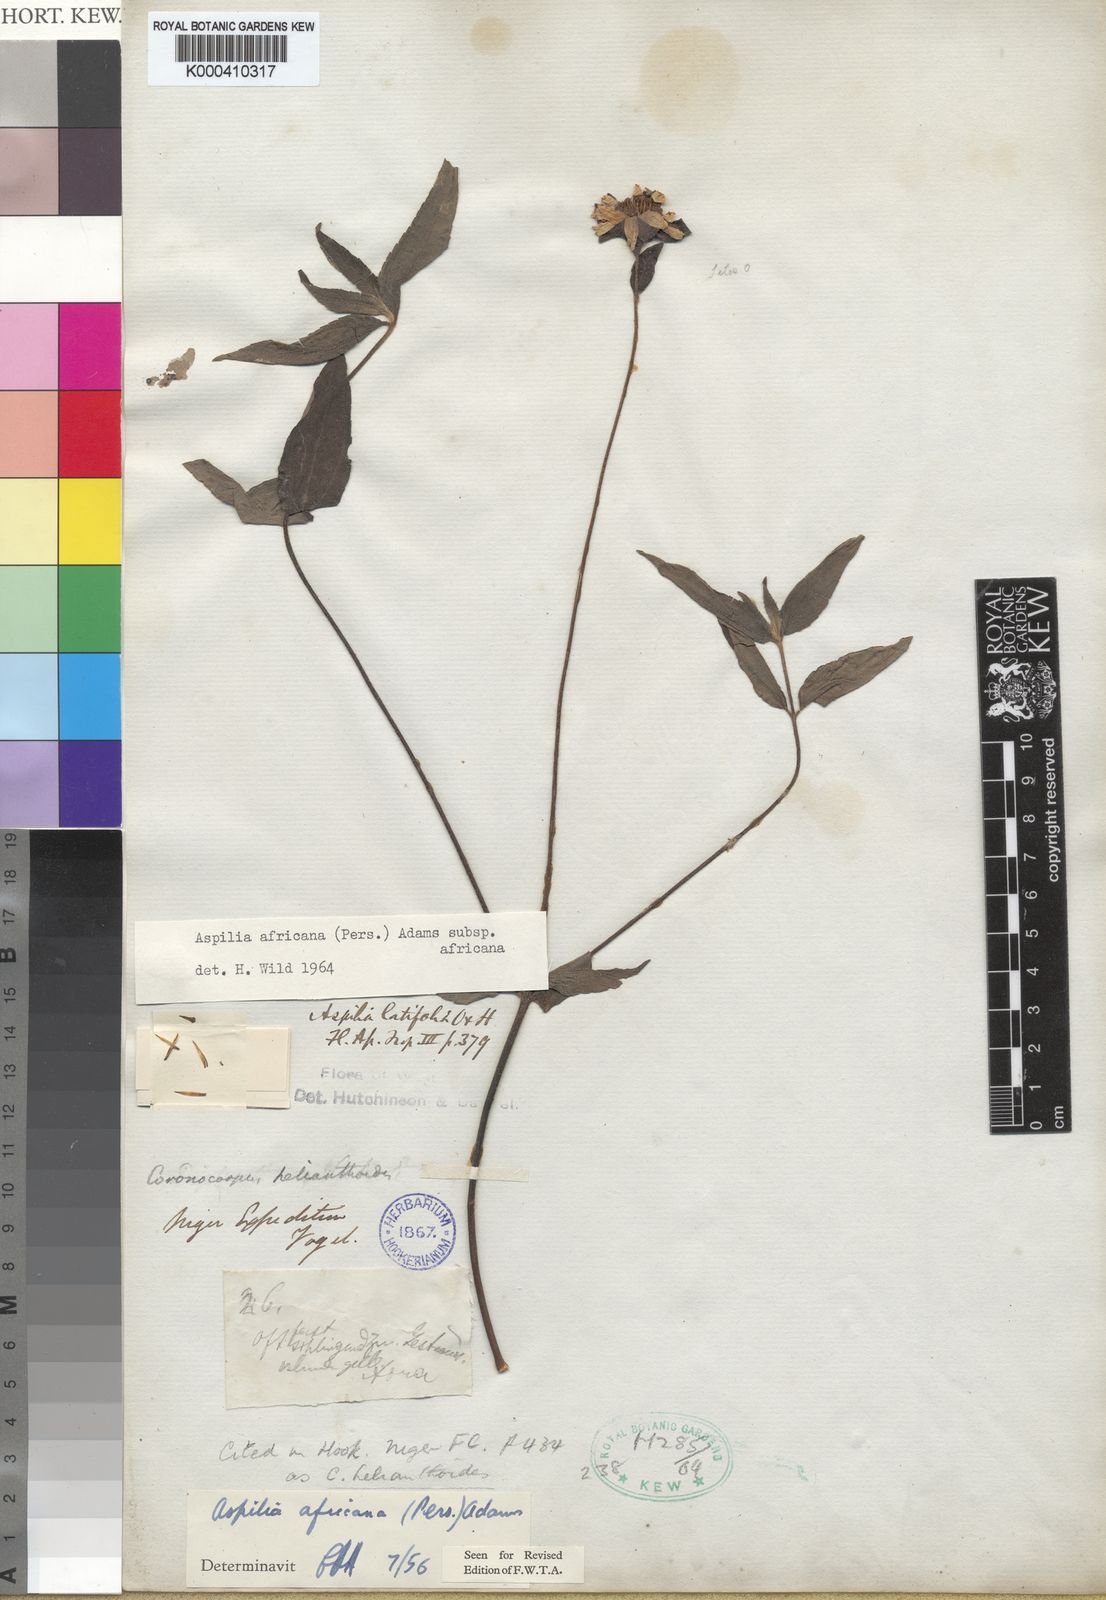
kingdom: Plantae
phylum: Tracheophyta
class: Magnoliopsida
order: Asterales
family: Asteraceae
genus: Aspilia
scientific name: Aspilia africana
